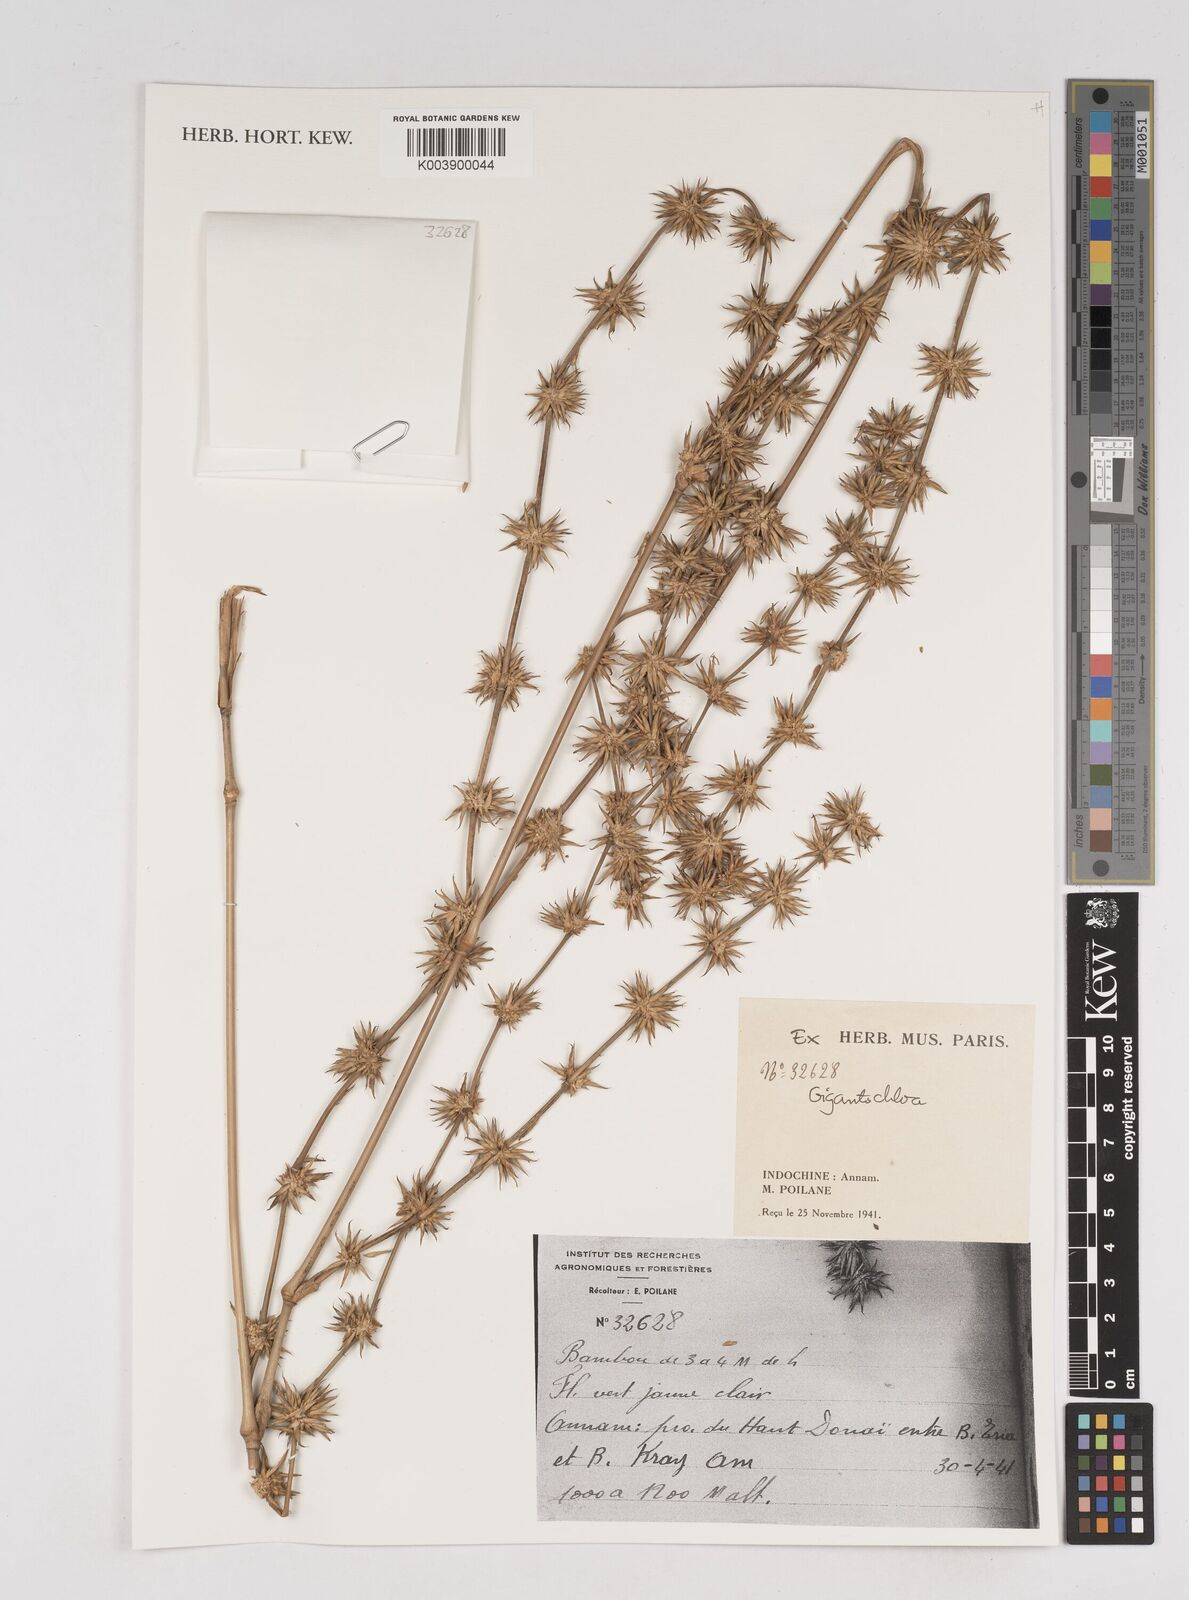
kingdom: Plantae
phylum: Tracheophyta
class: Liliopsida
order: Poales
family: Poaceae
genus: Gigantochloa
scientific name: Gigantochloa
